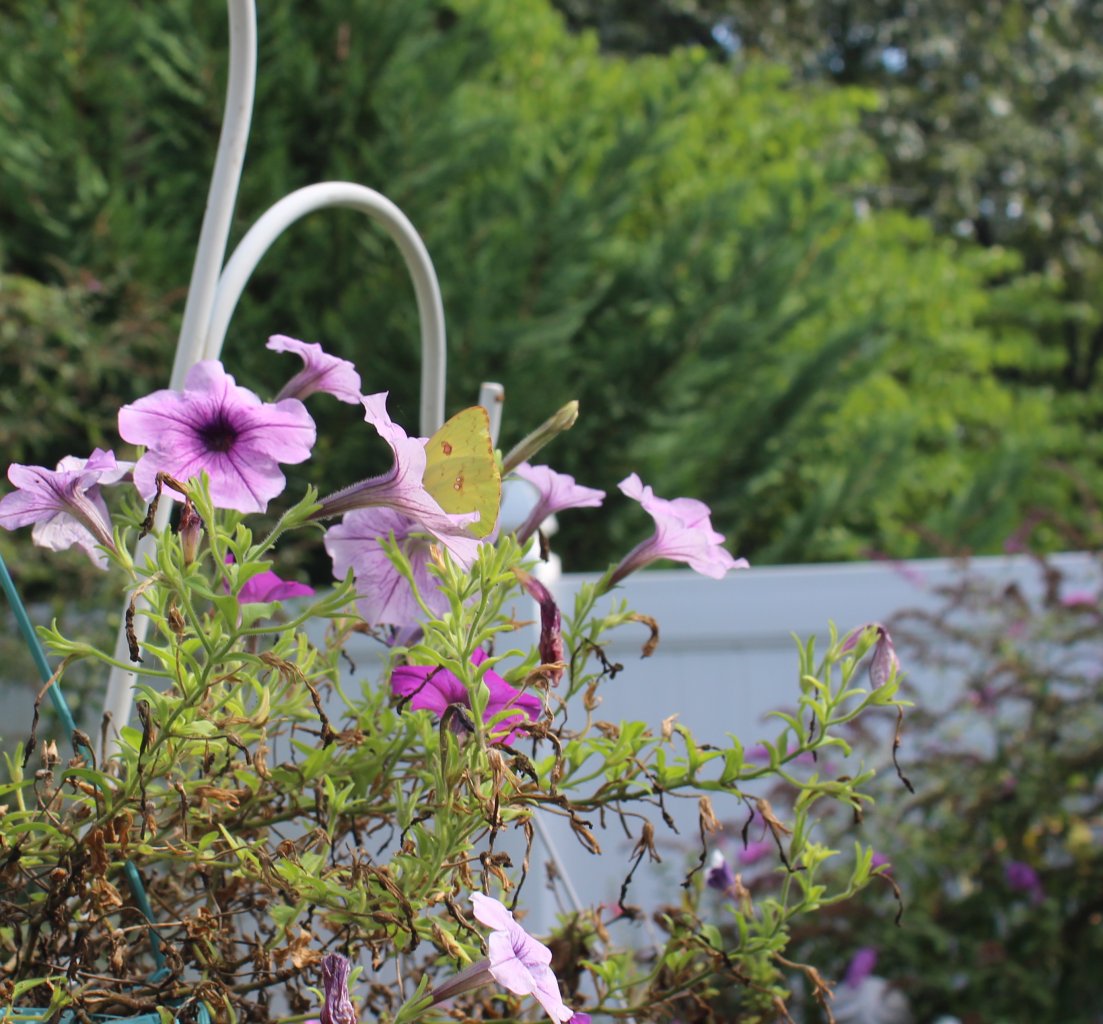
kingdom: Animalia
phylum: Arthropoda
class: Insecta
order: Lepidoptera
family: Pieridae
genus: Phoebis
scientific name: Phoebis sennae
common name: Cloudless Sulphur
